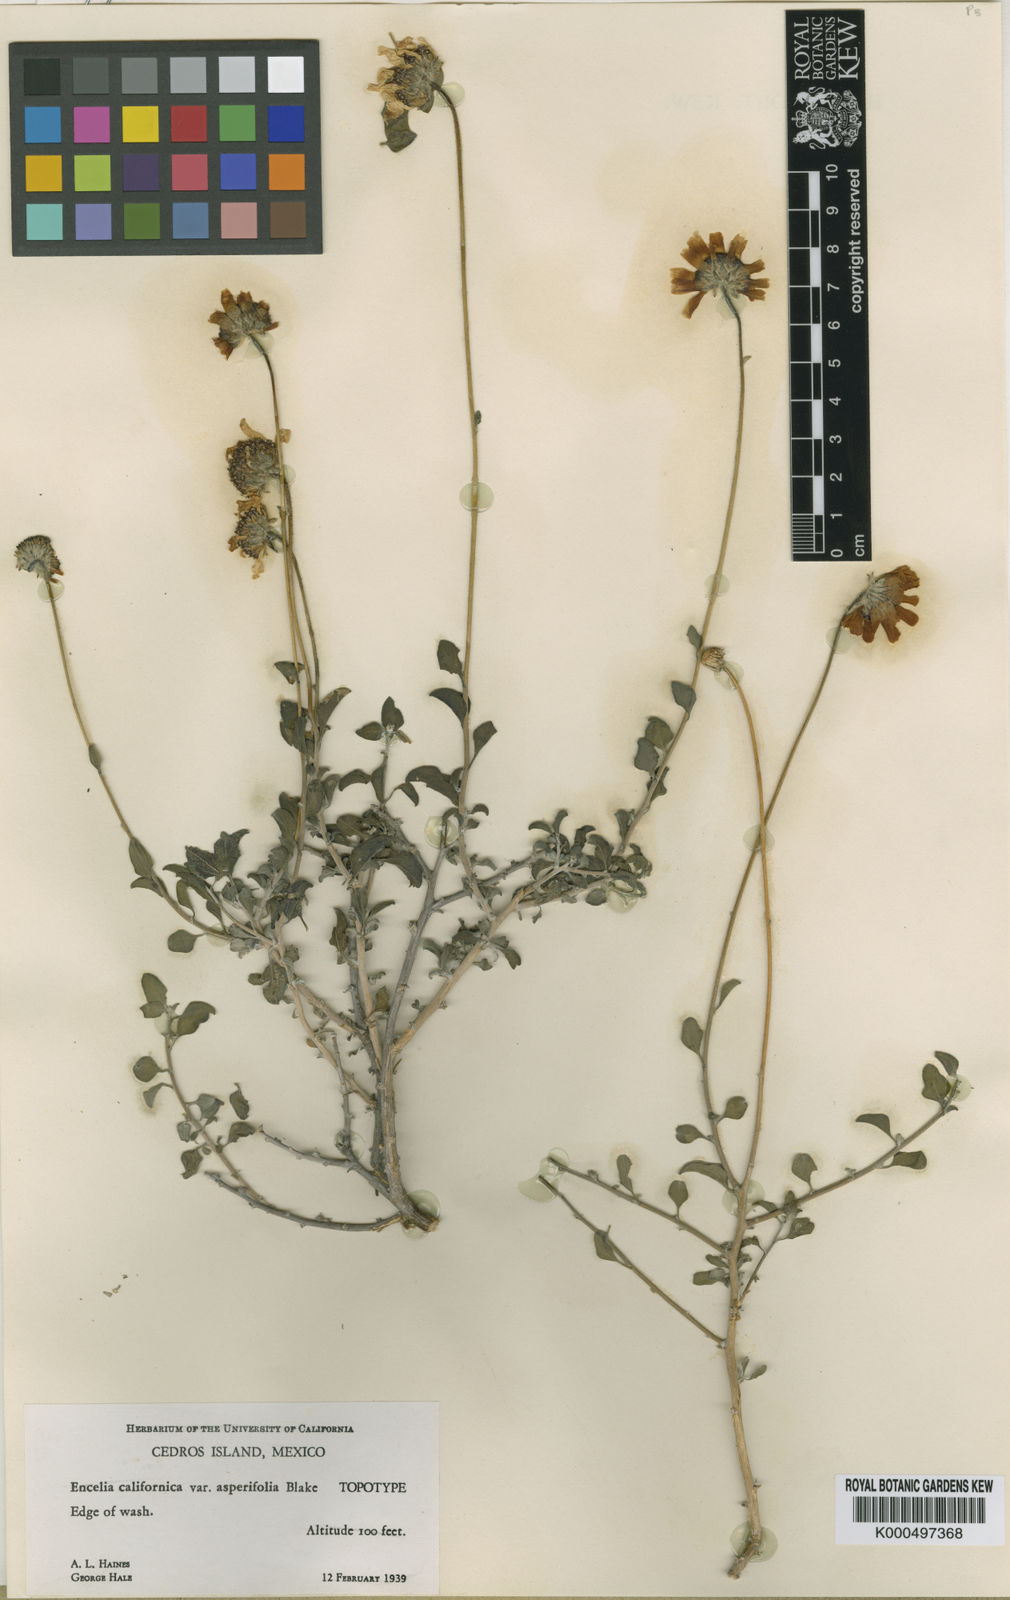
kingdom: Plantae
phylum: Tracheophyta
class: Magnoliopsida
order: Asterales
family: Asteraceae
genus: Encelia
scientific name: Encelia asperifolia
